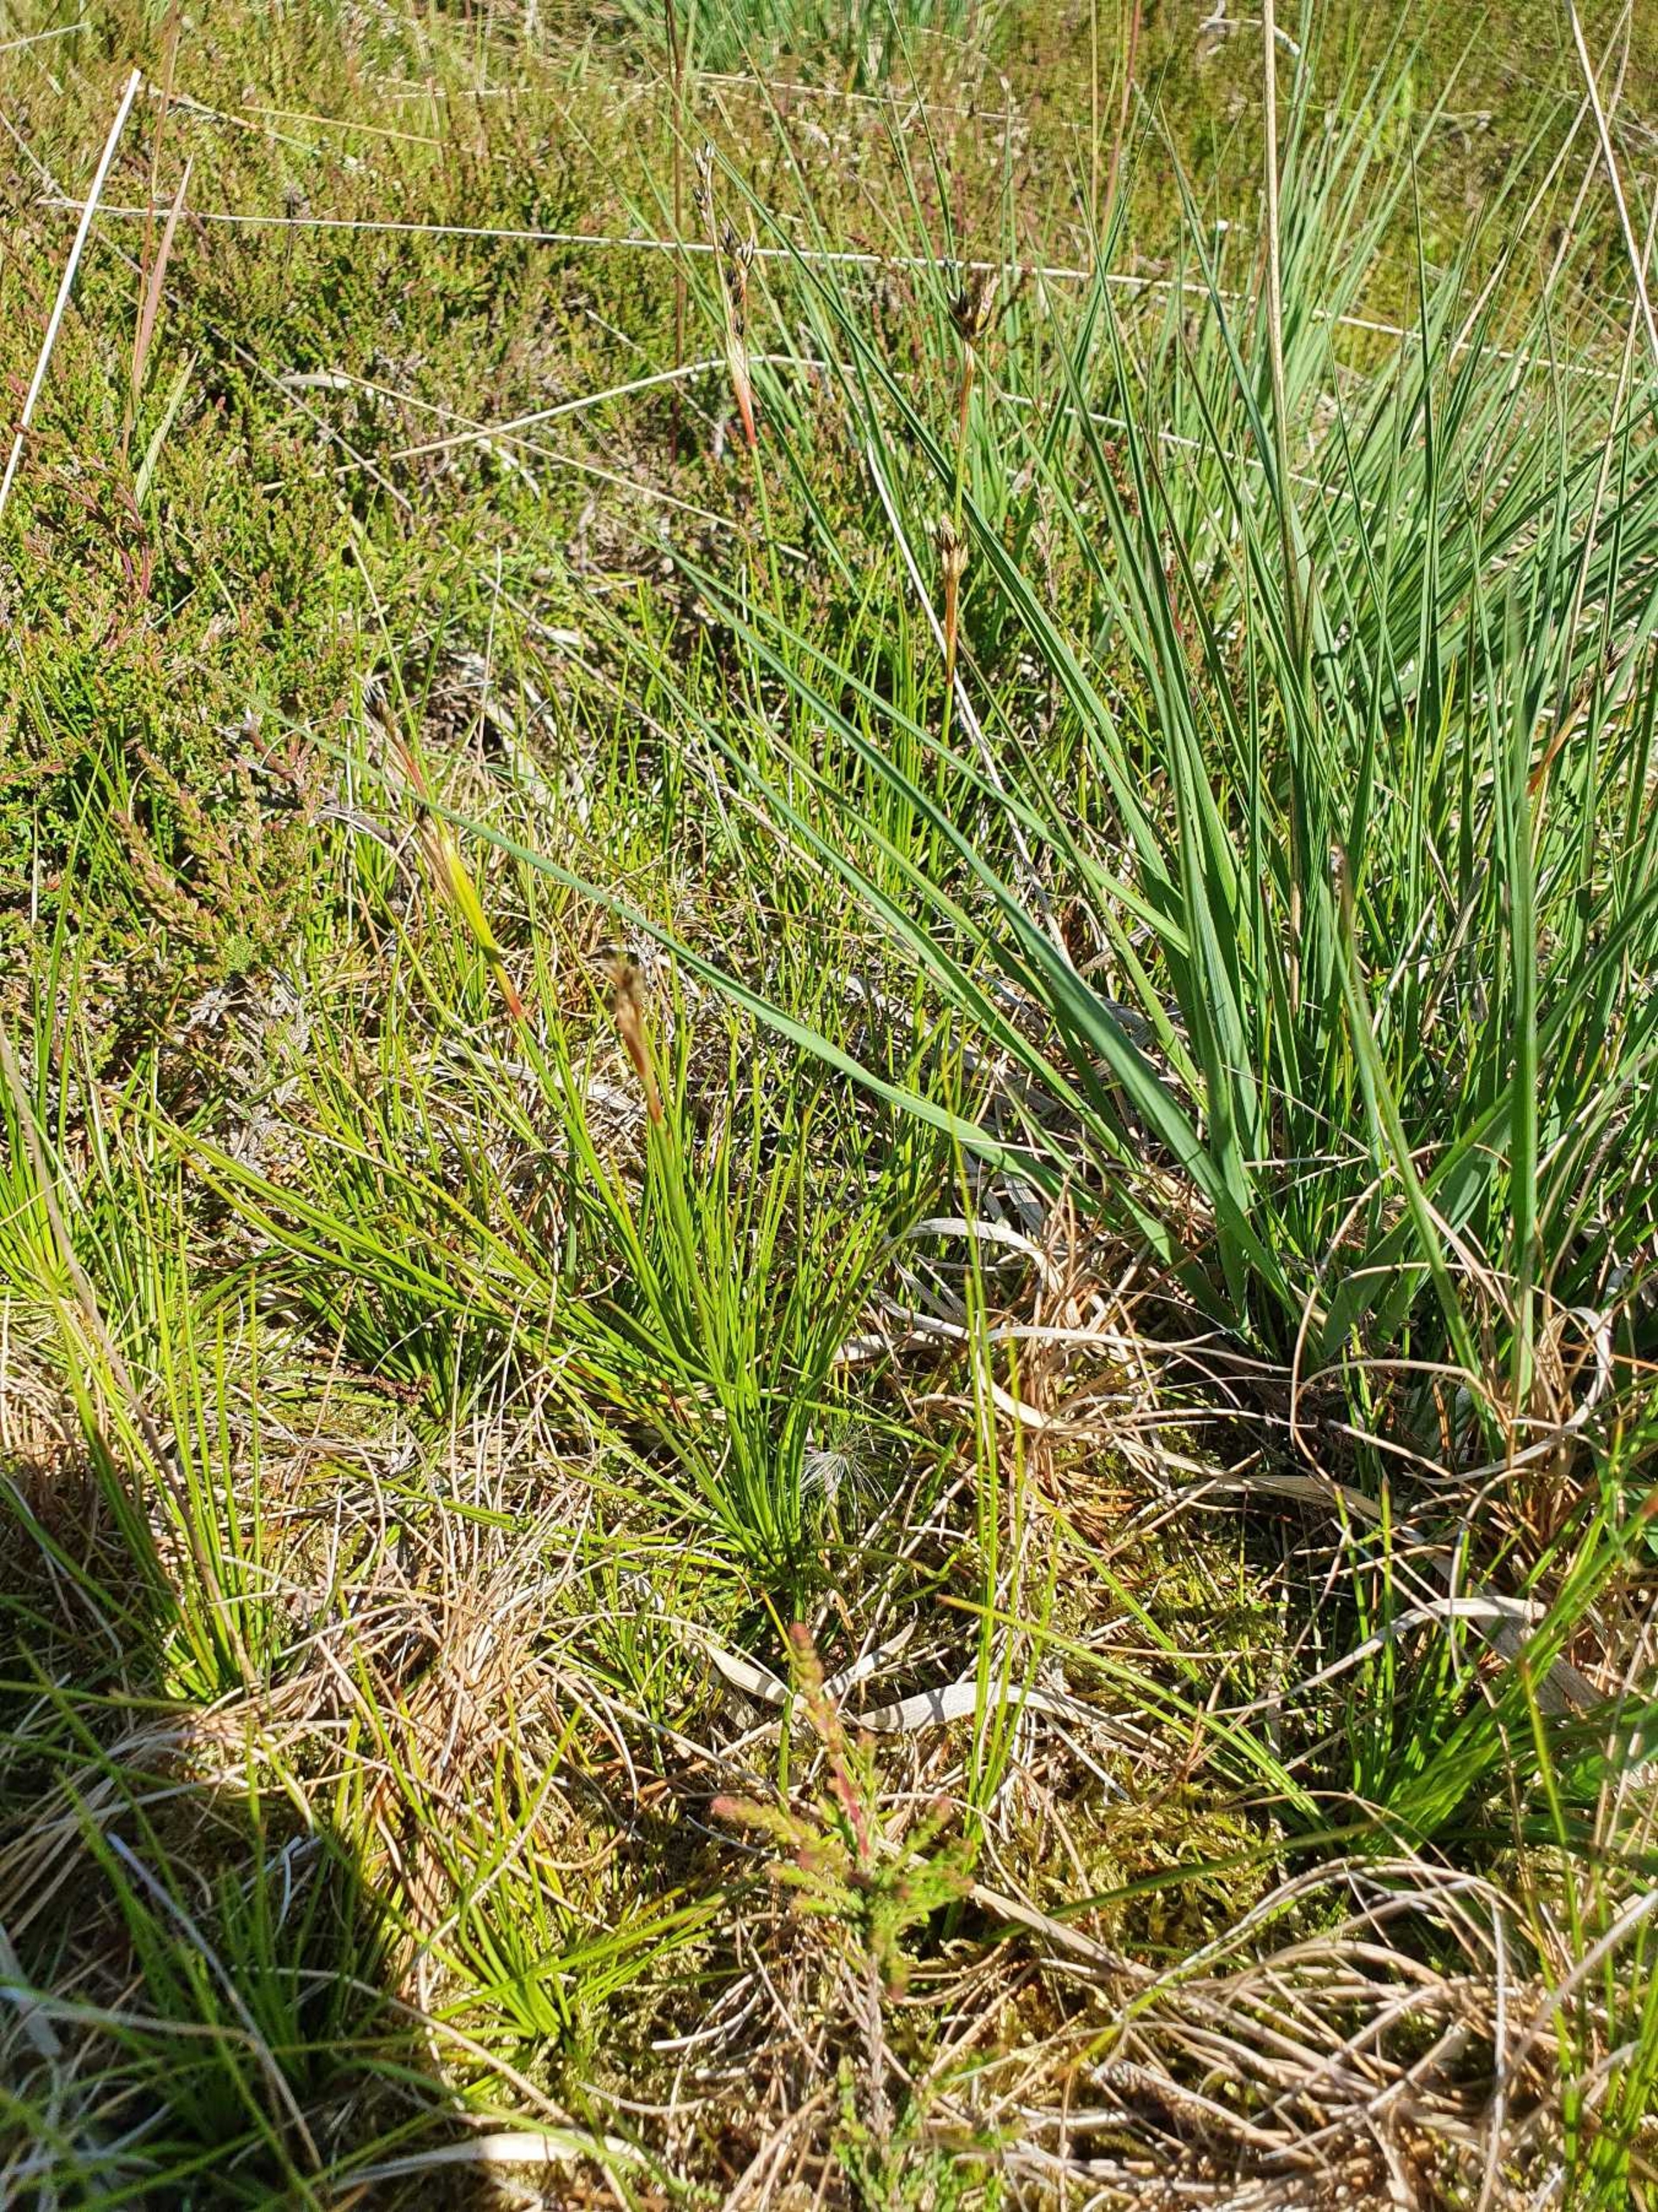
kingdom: Plantae
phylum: Tracheophyta
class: Liliopsida
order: Poales
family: Juncaceae
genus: Juncus
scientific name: Juncus squarrosus
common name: Børste-siv
